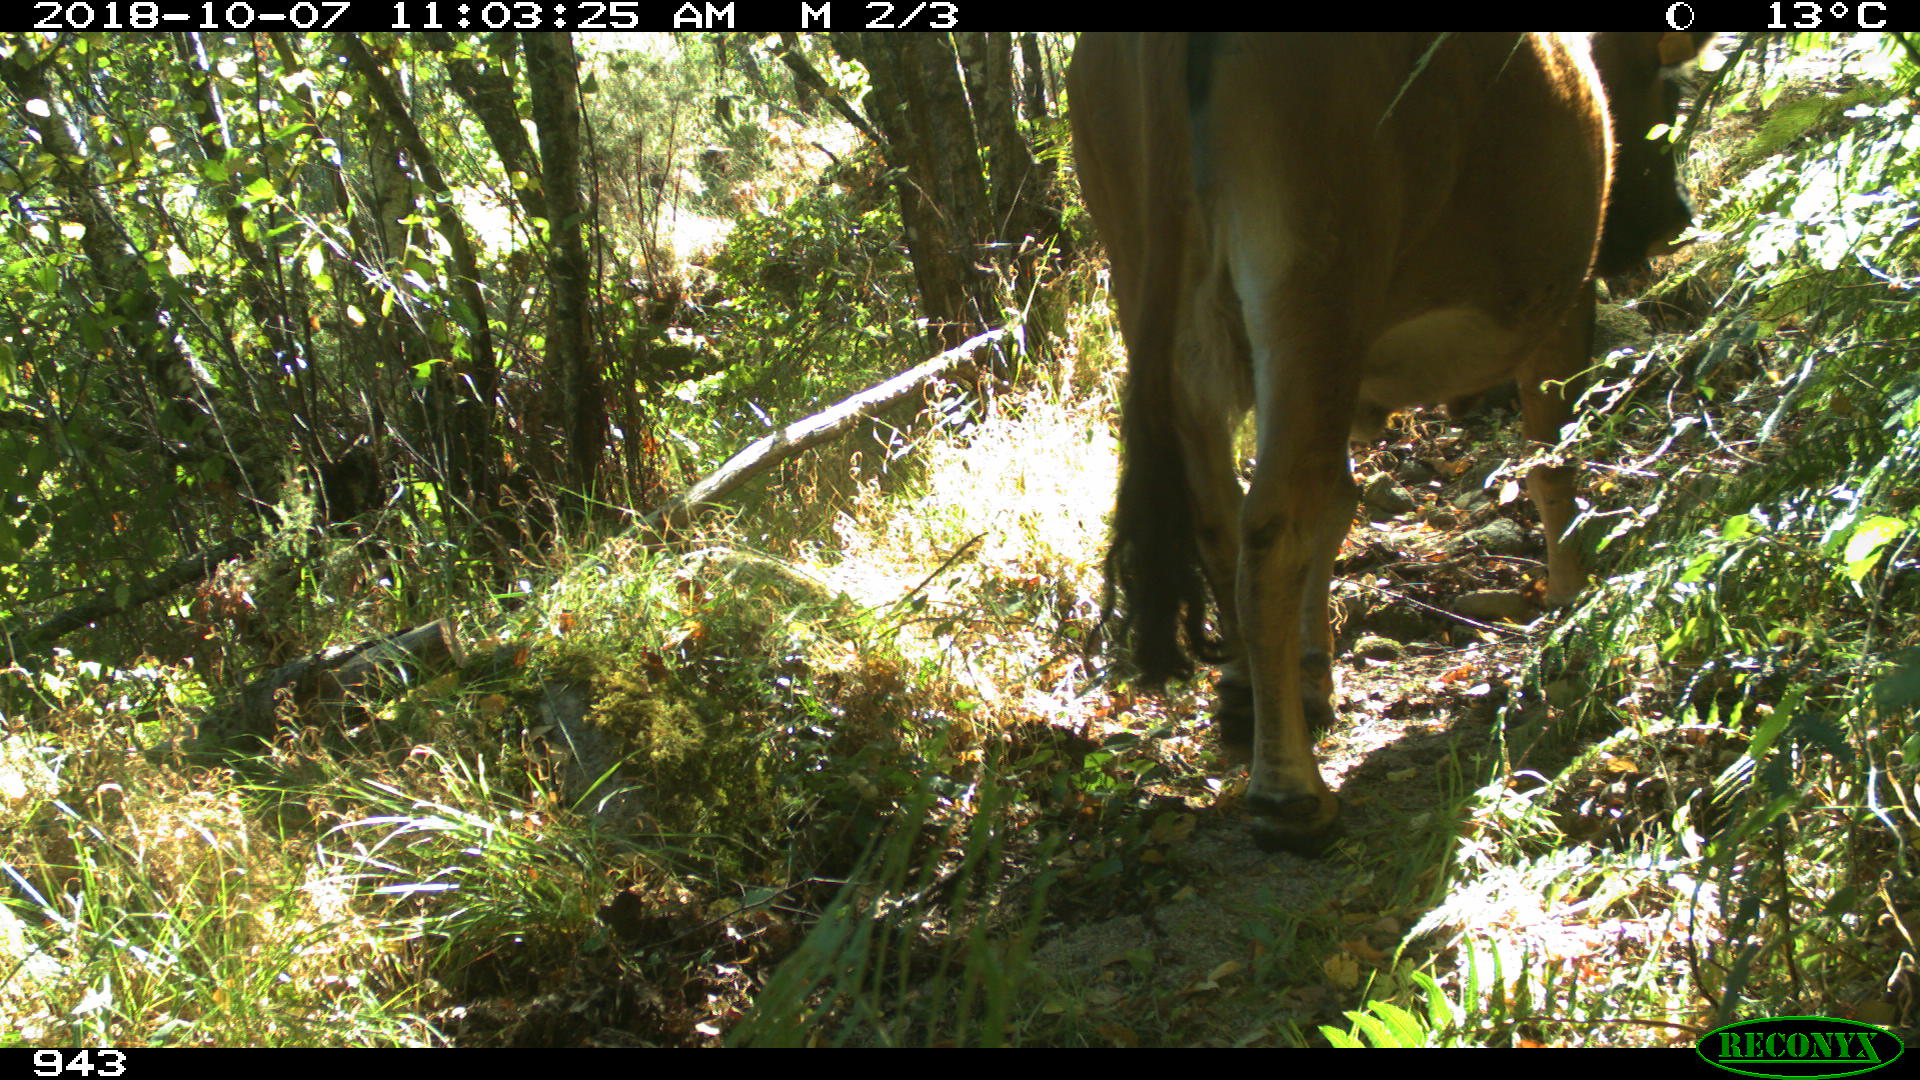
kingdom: Animalia
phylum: Chordata
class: Mammalia
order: Artiodactyla
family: Bovidae
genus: Bos
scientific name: Bos taurus
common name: Domesticated cattle
